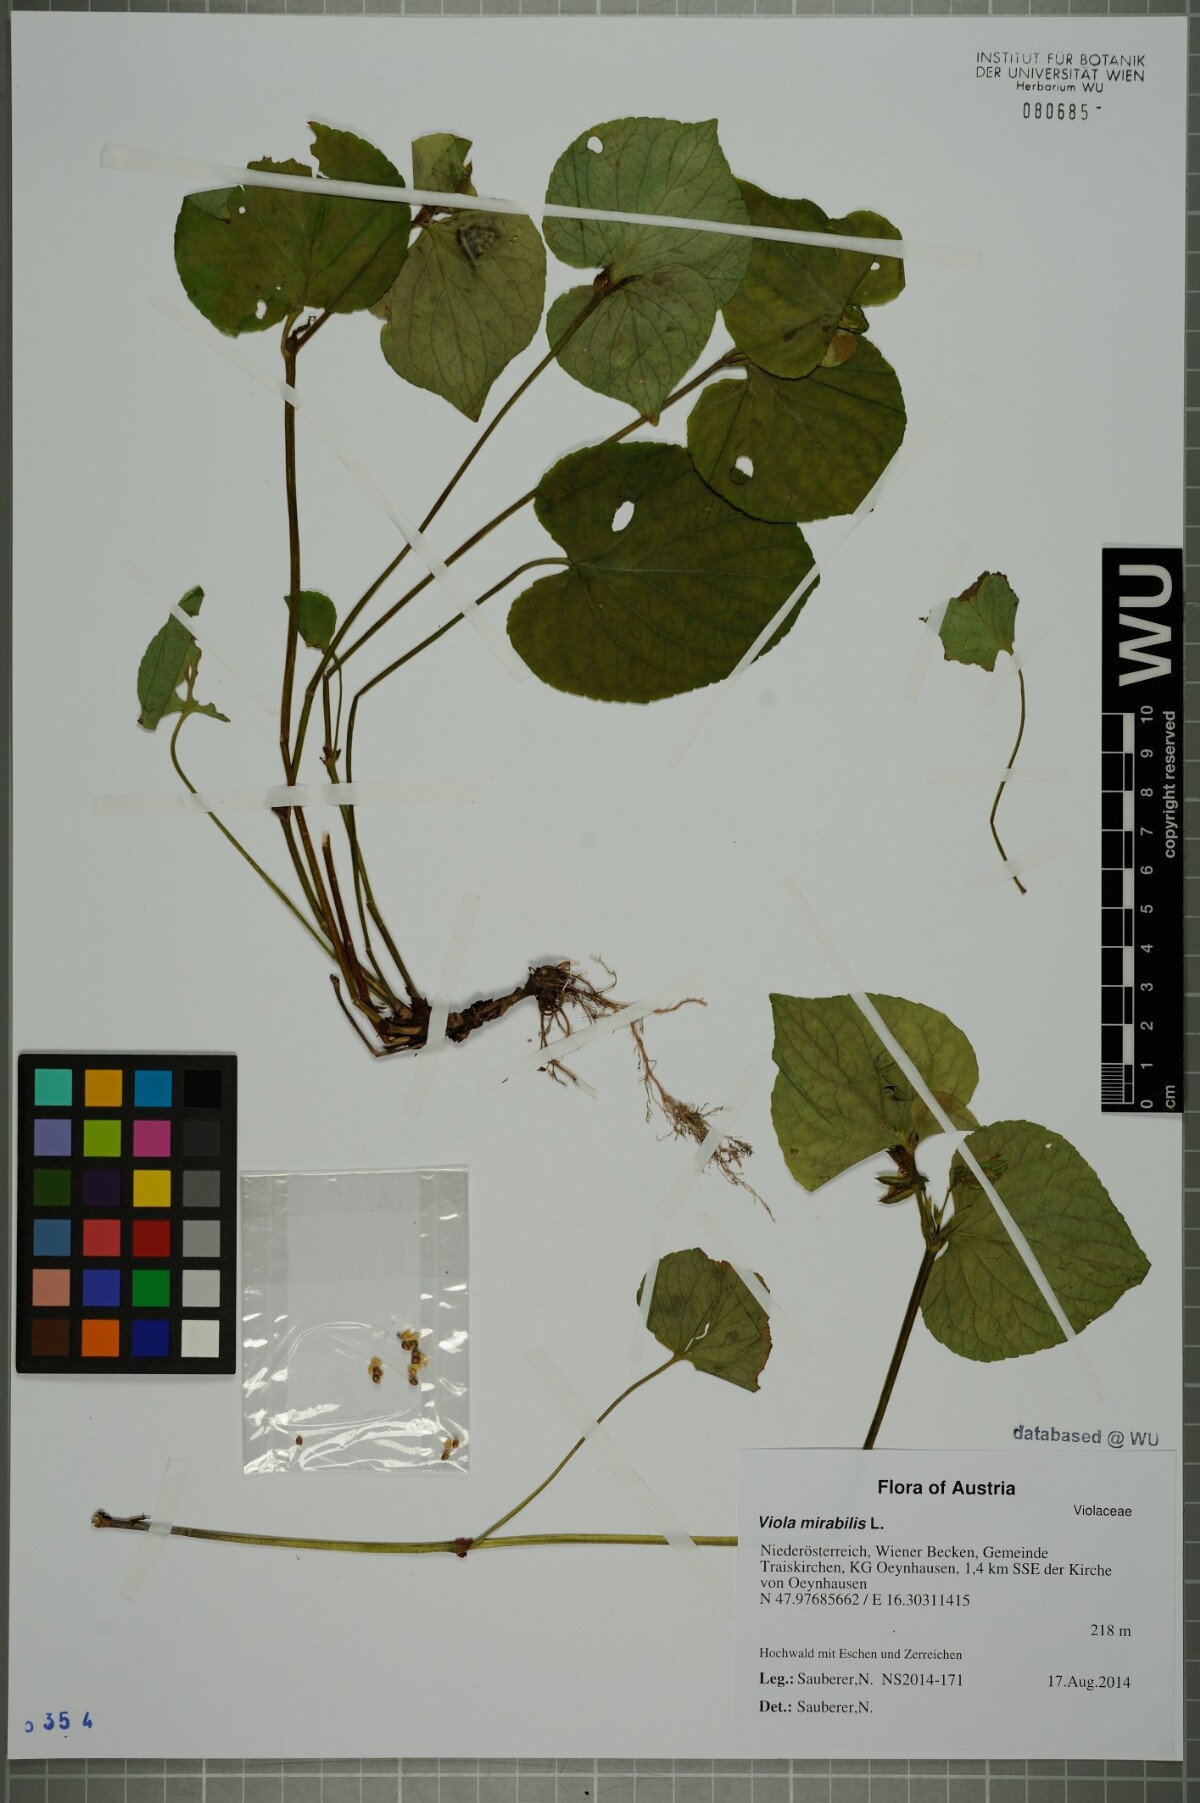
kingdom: Plantae
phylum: Tracheophyta
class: Magnoliopsida
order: Malpighiales
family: Violaceae
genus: Viola
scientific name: Viola mirabilis
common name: Wonder violet
